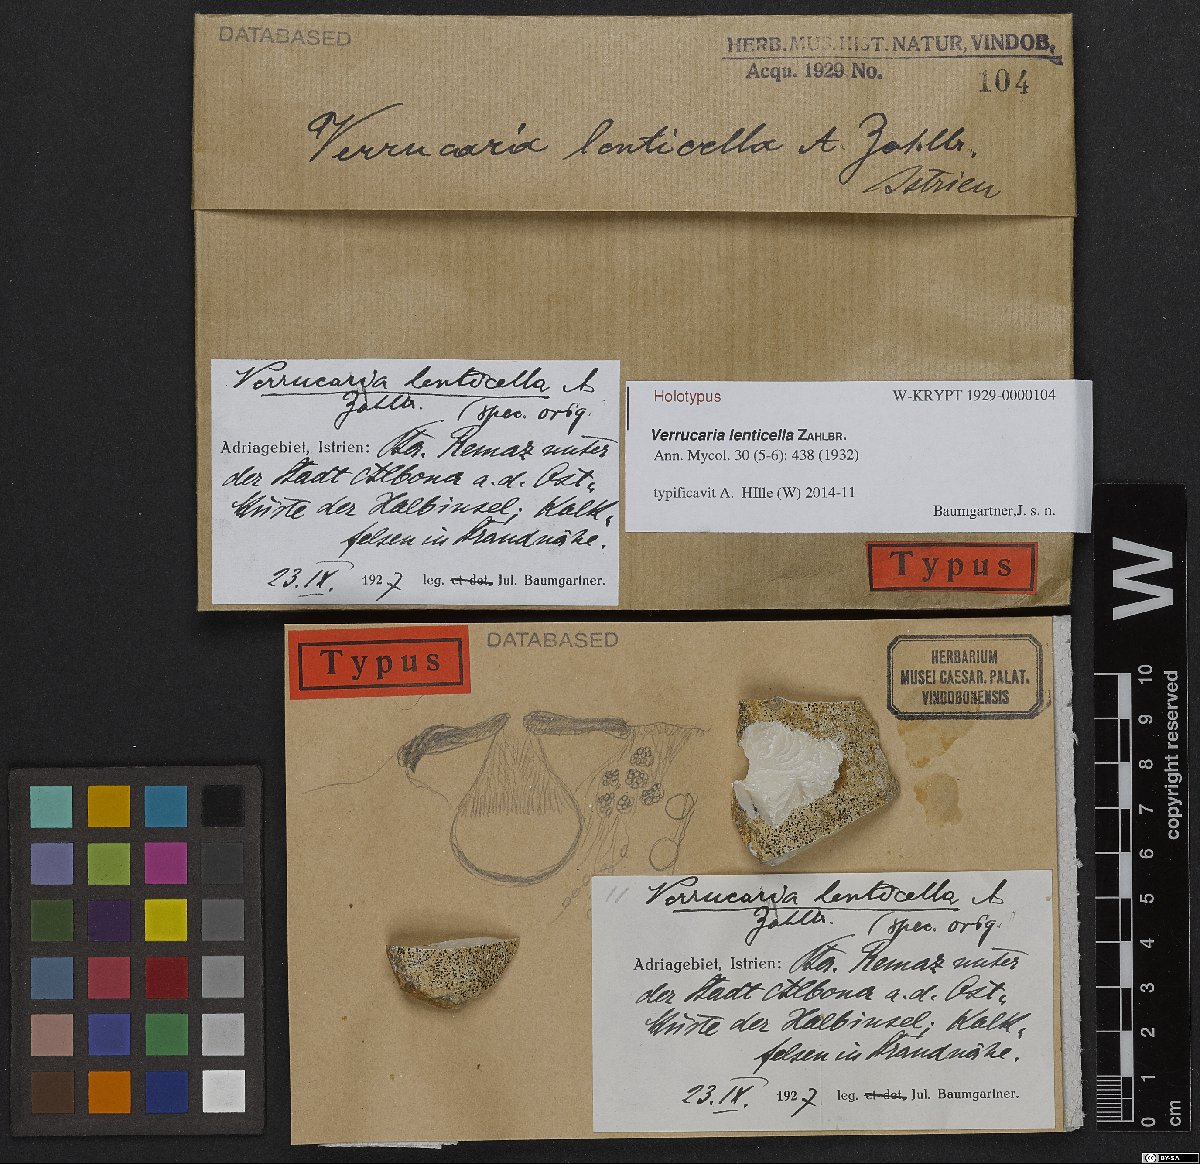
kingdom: Fungi
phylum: Ascomycota
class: Eurotiomycetes
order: Verrucariales
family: Verrucariaceae
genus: Verrucaria
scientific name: Verrucaria
